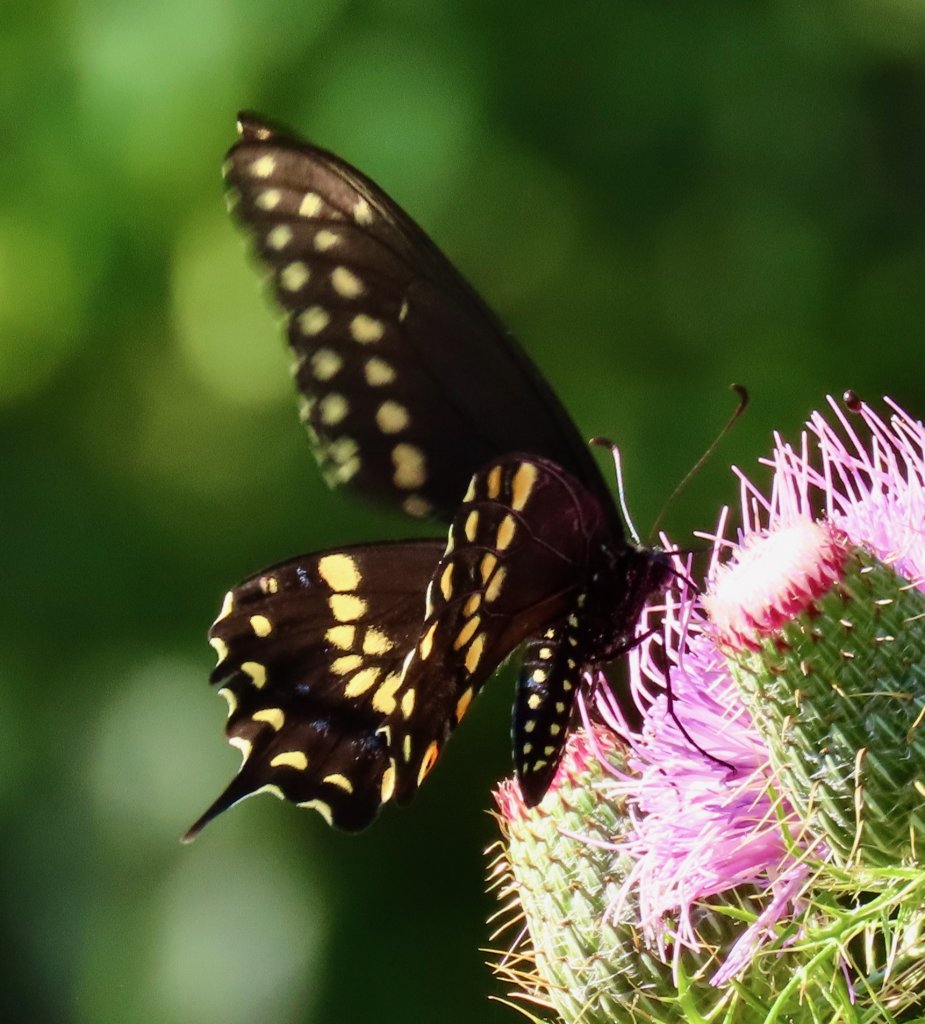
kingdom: Animalia
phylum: Arthropoda
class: Insecta
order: Lepidoptera
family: Papilionidae
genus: Papilio
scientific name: Papilio polyxenes
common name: Black Swallowtail
